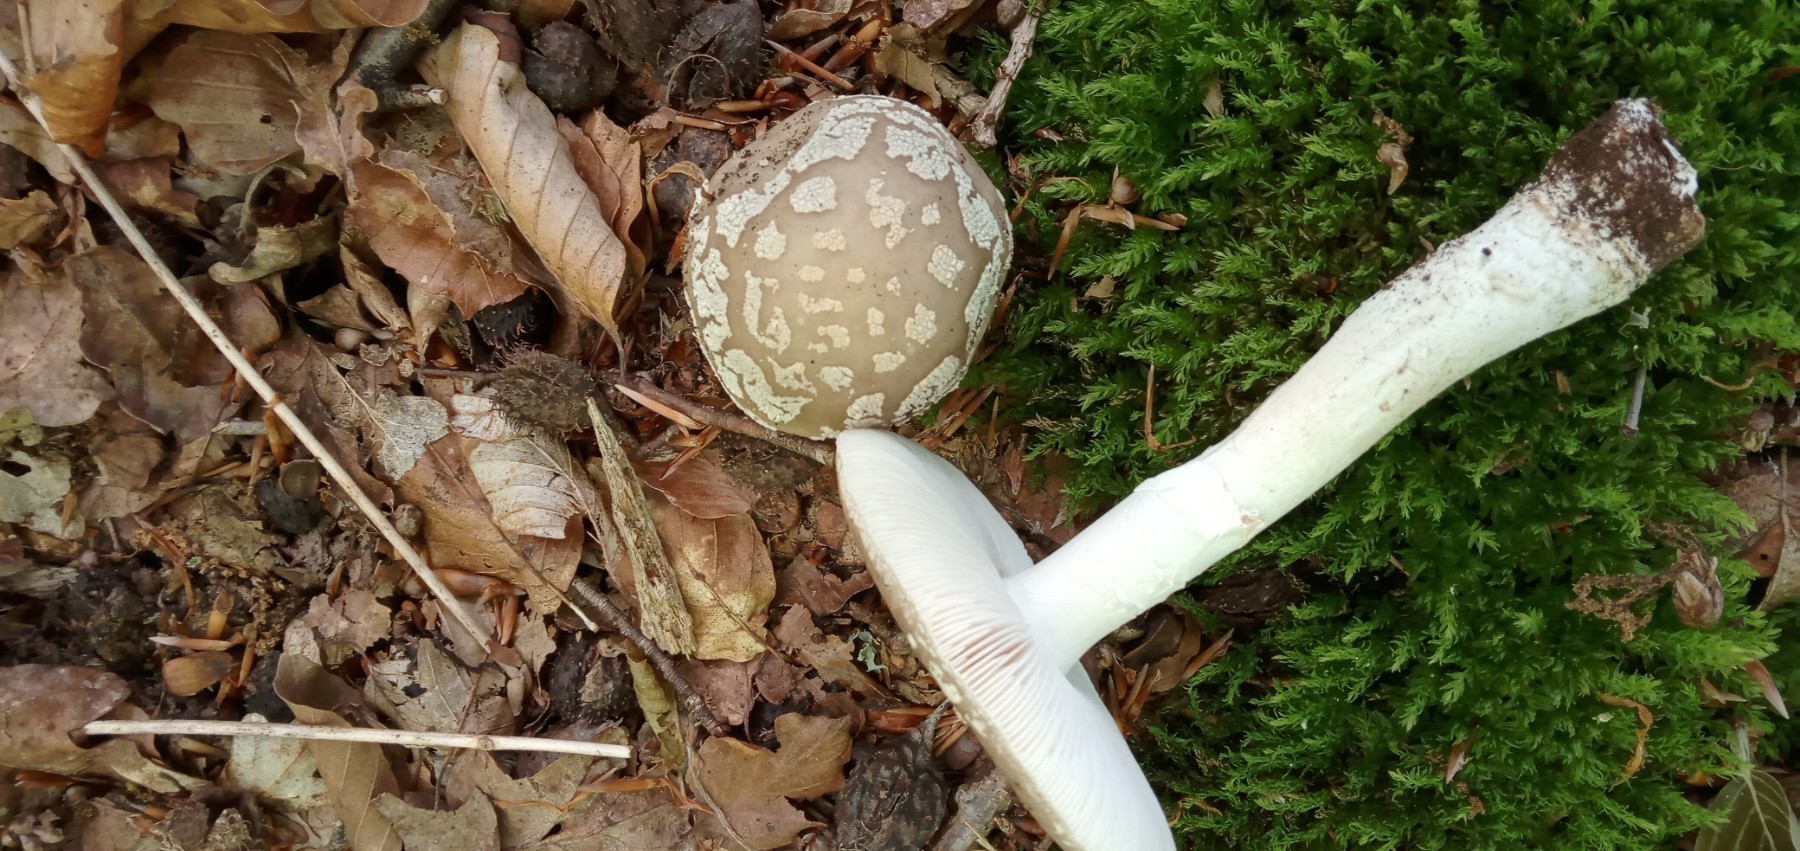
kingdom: Fungi
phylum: Basidiomycota
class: Agaricomycetes
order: Agaricales
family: Amanitaceae
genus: Amanita
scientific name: Amanita
